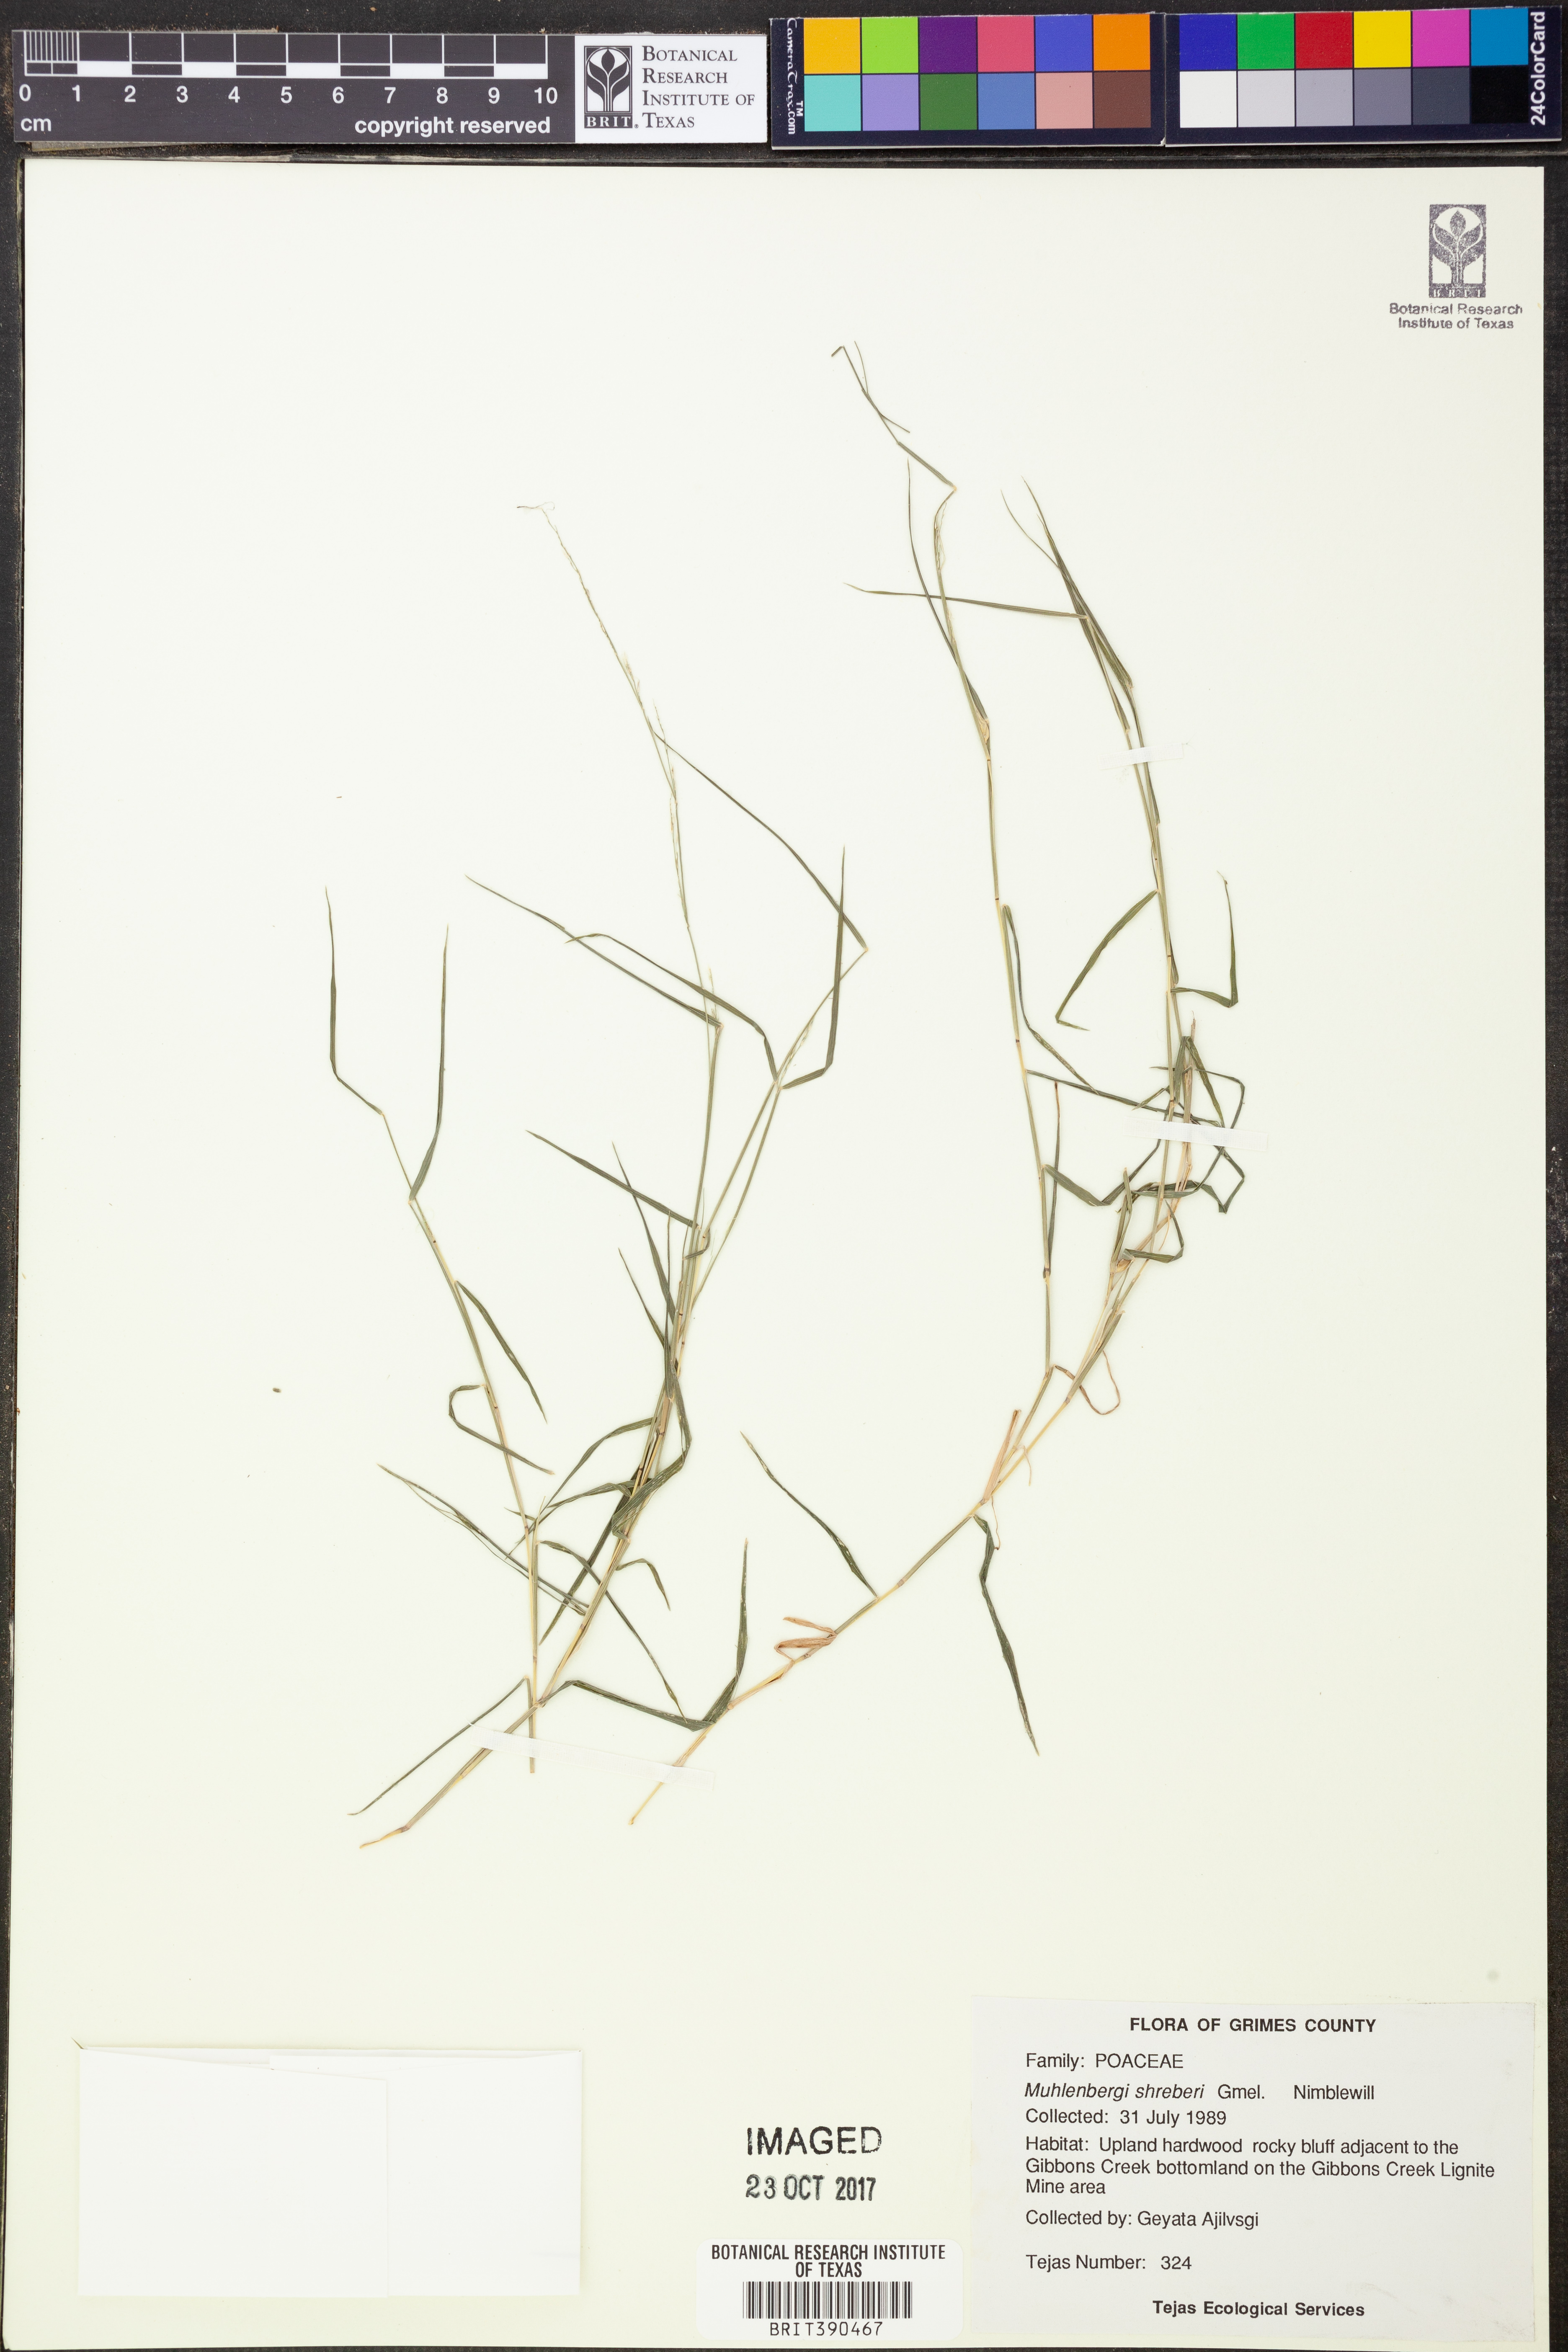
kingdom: Plantae
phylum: Tracheophyta
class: Liliopsida
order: Poales
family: Poaceae
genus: Muhlenbergia
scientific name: Muhlenbergia schreberi
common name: Nimblewill
